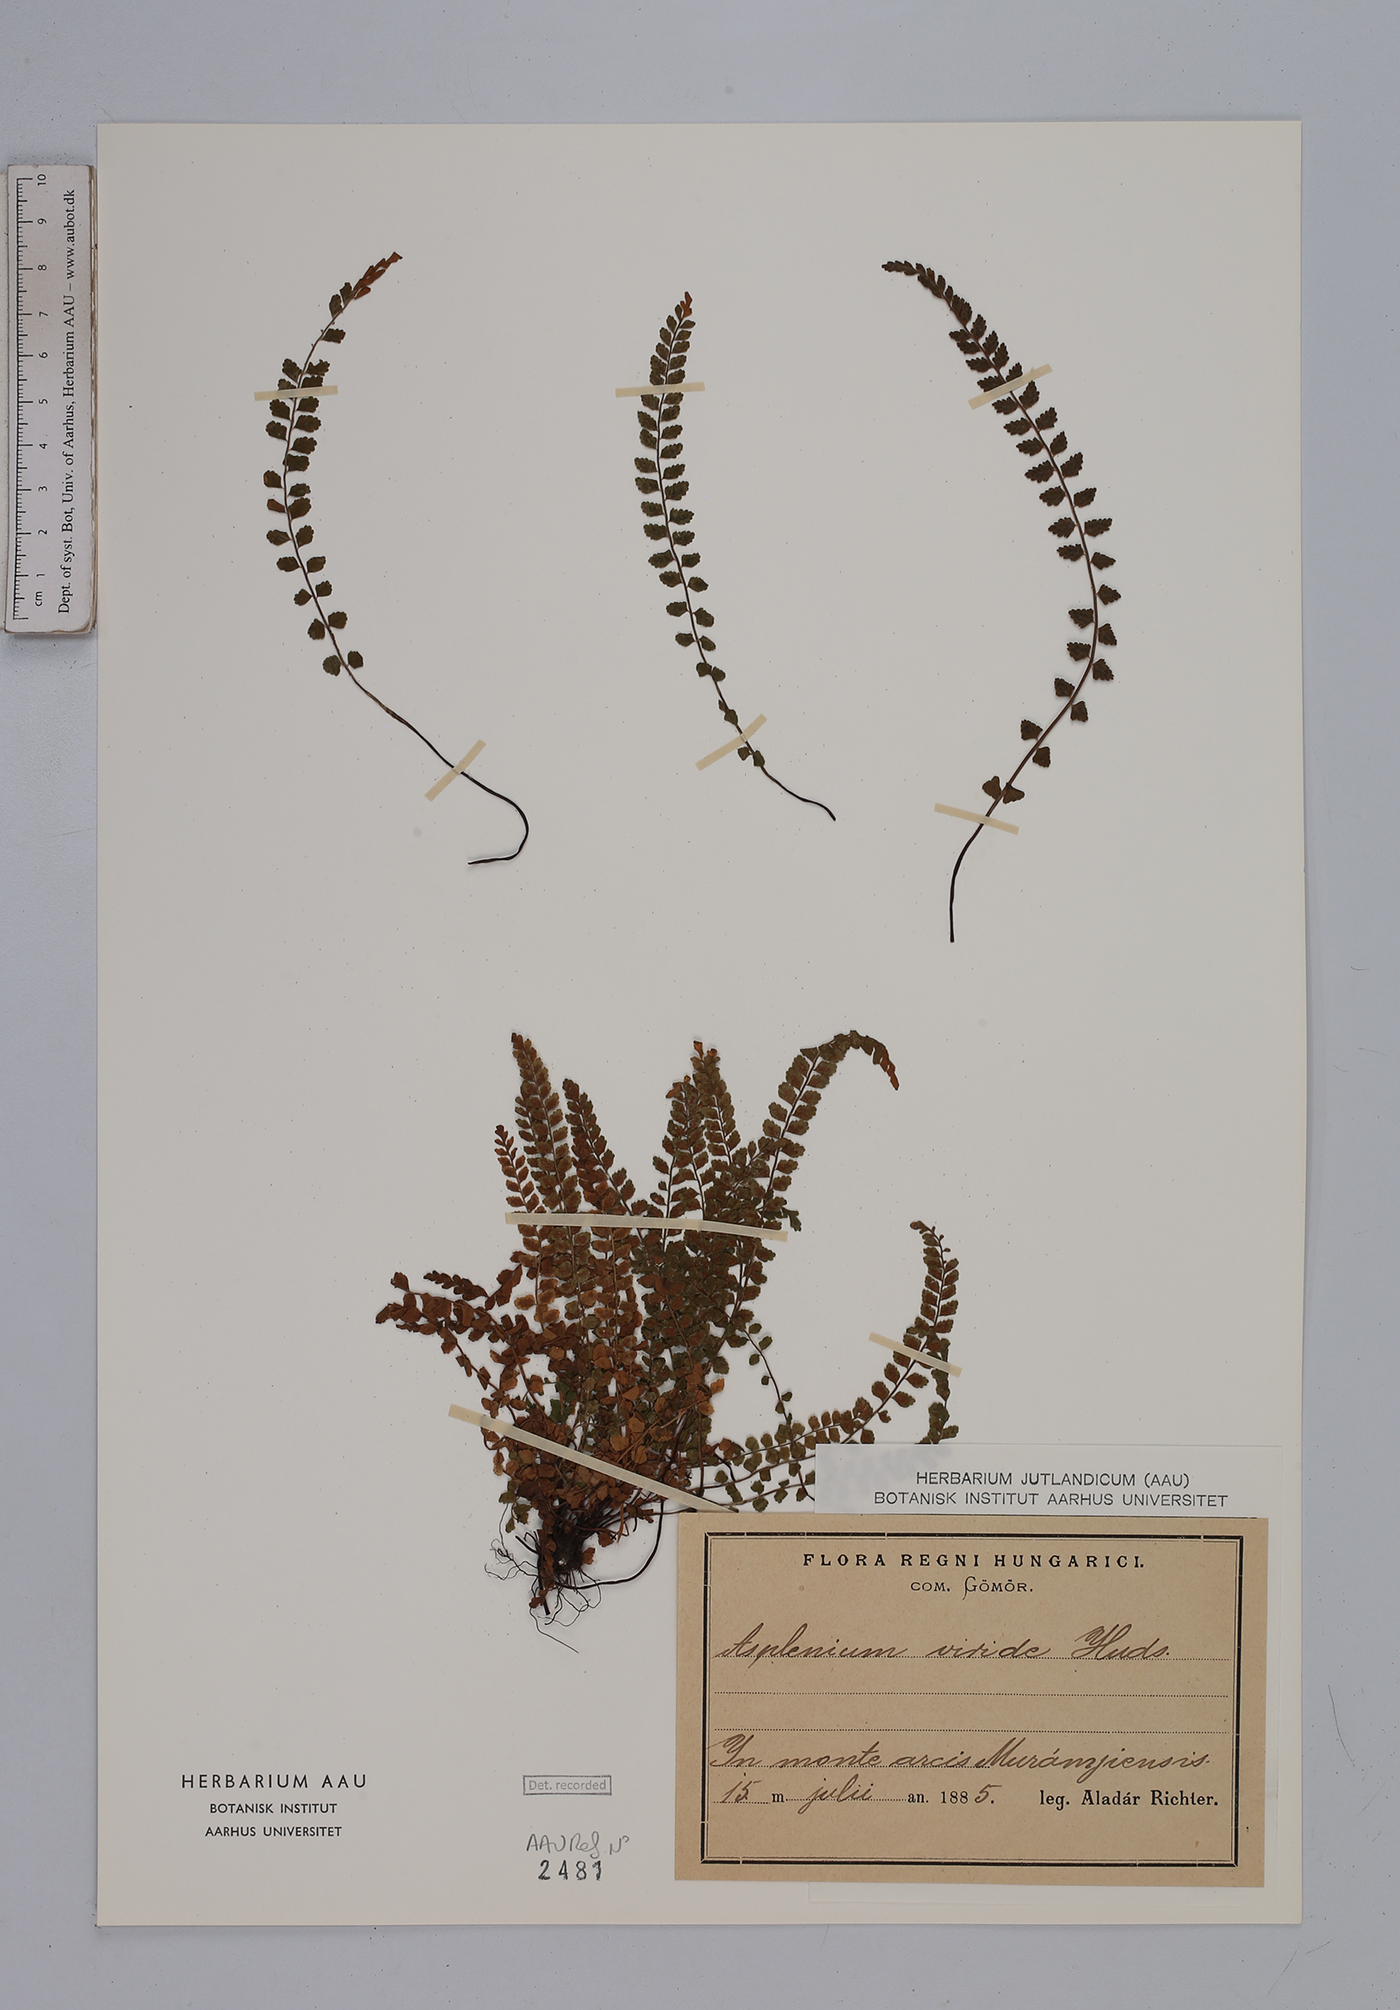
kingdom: Plantae
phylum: Tracheophyta
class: Polypodiopsida
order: Polypodiales
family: Aspleniaceae
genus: Asplenium
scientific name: Asplenium viride
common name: Green spleenwort
